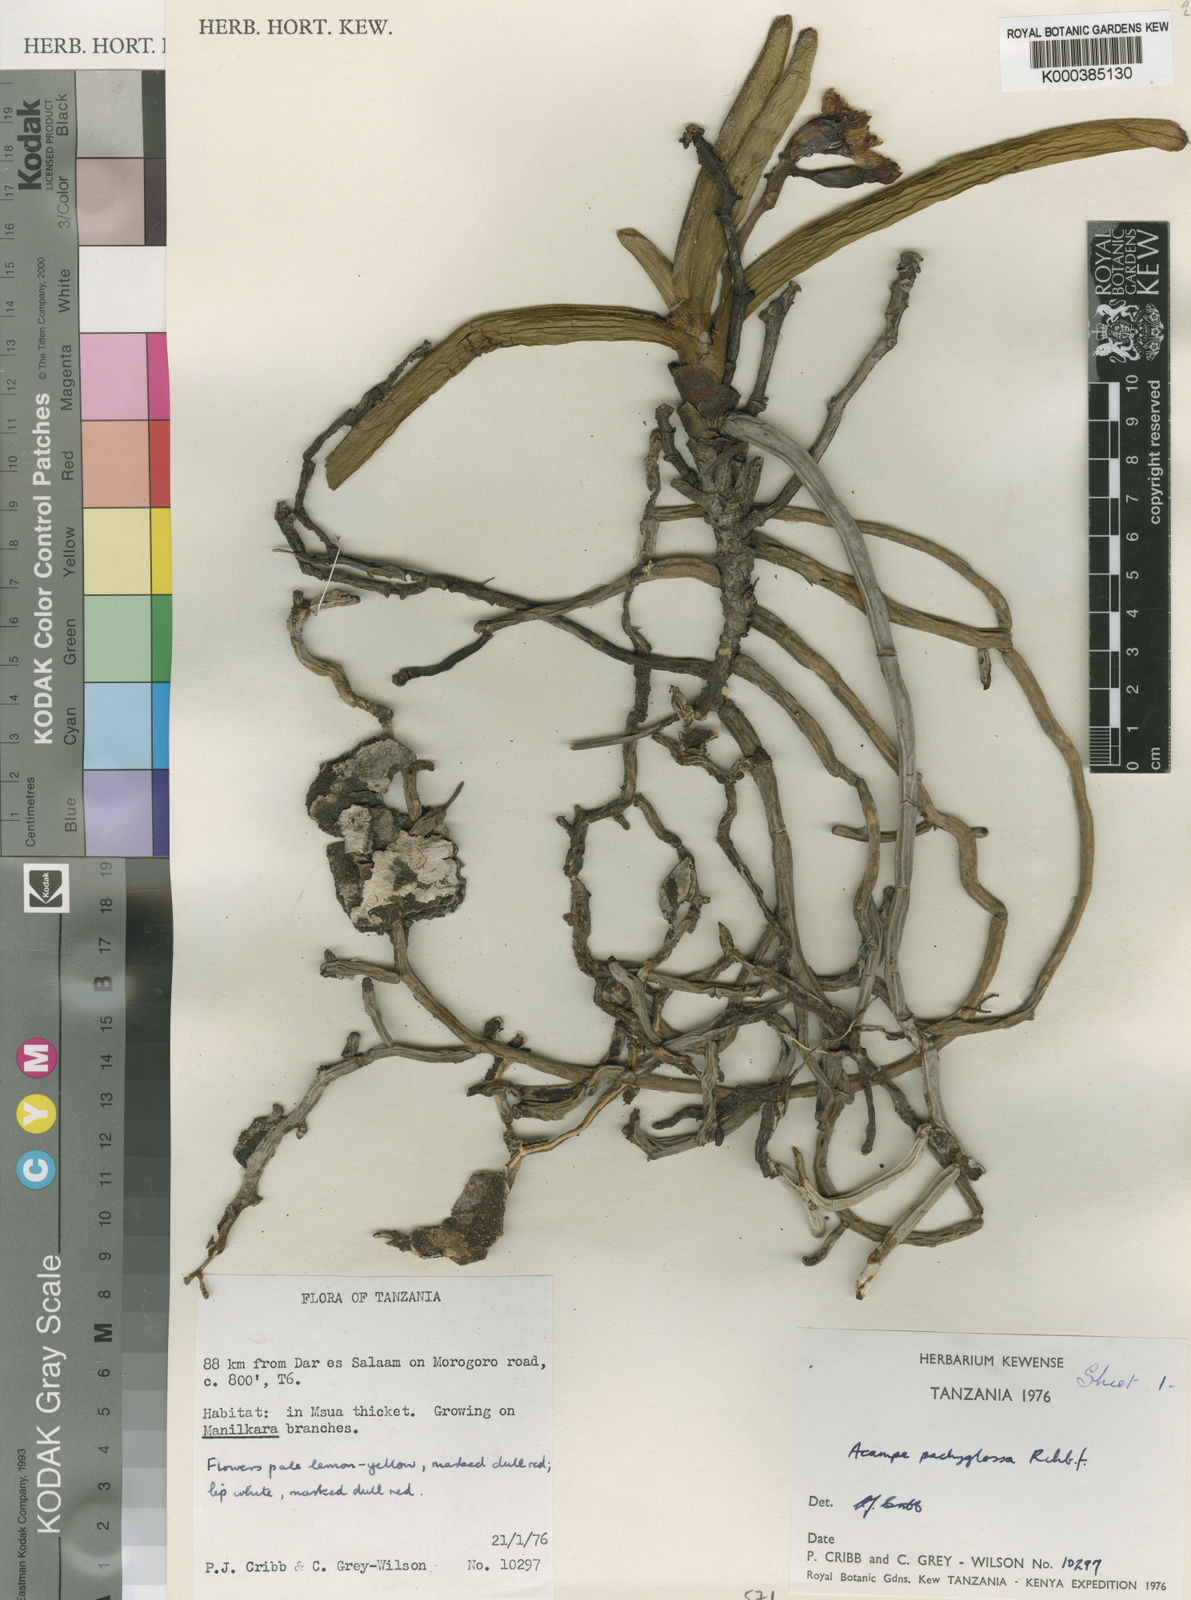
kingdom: Plantae
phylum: Tracheophyta
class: Liliopsida
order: Asparagales
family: Orchidaceae
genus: Acampe
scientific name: Acampe pachyglossa
